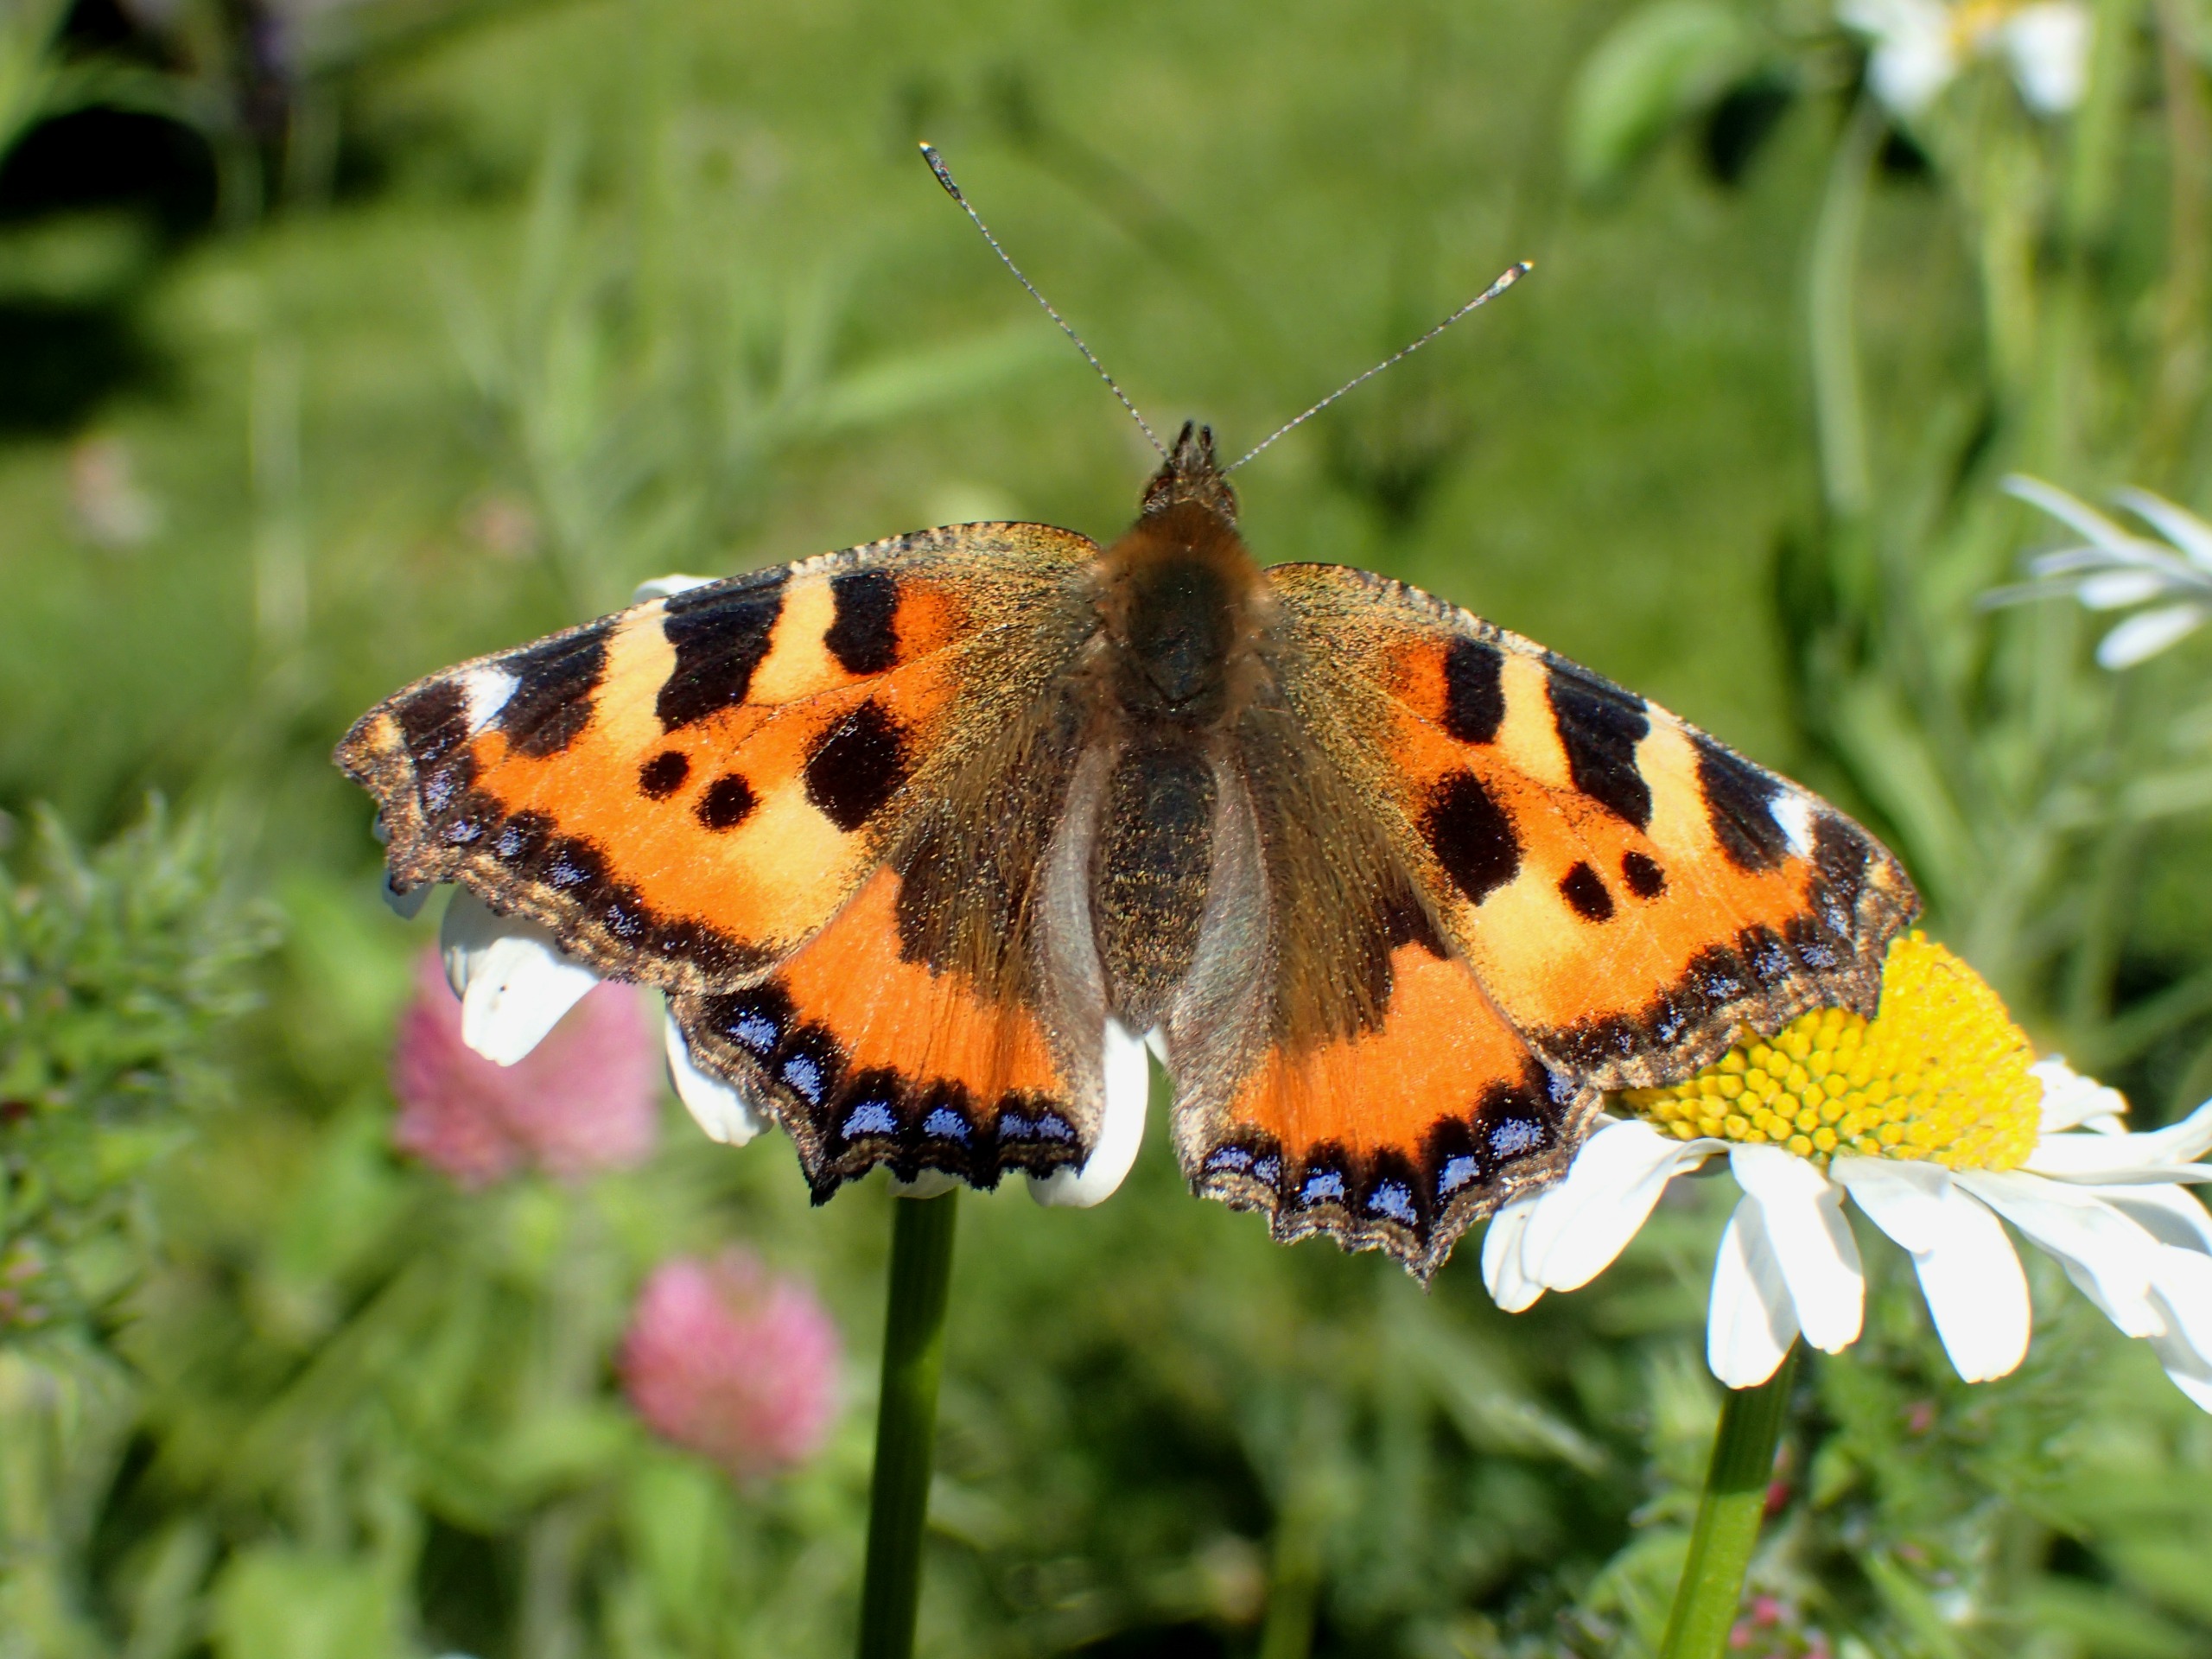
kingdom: Animalia
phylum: Arthropoda
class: Insecta
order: Lepidoptera
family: Nymphalidae
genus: Aglais
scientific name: Aglais urticae
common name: Nældens takvinge
